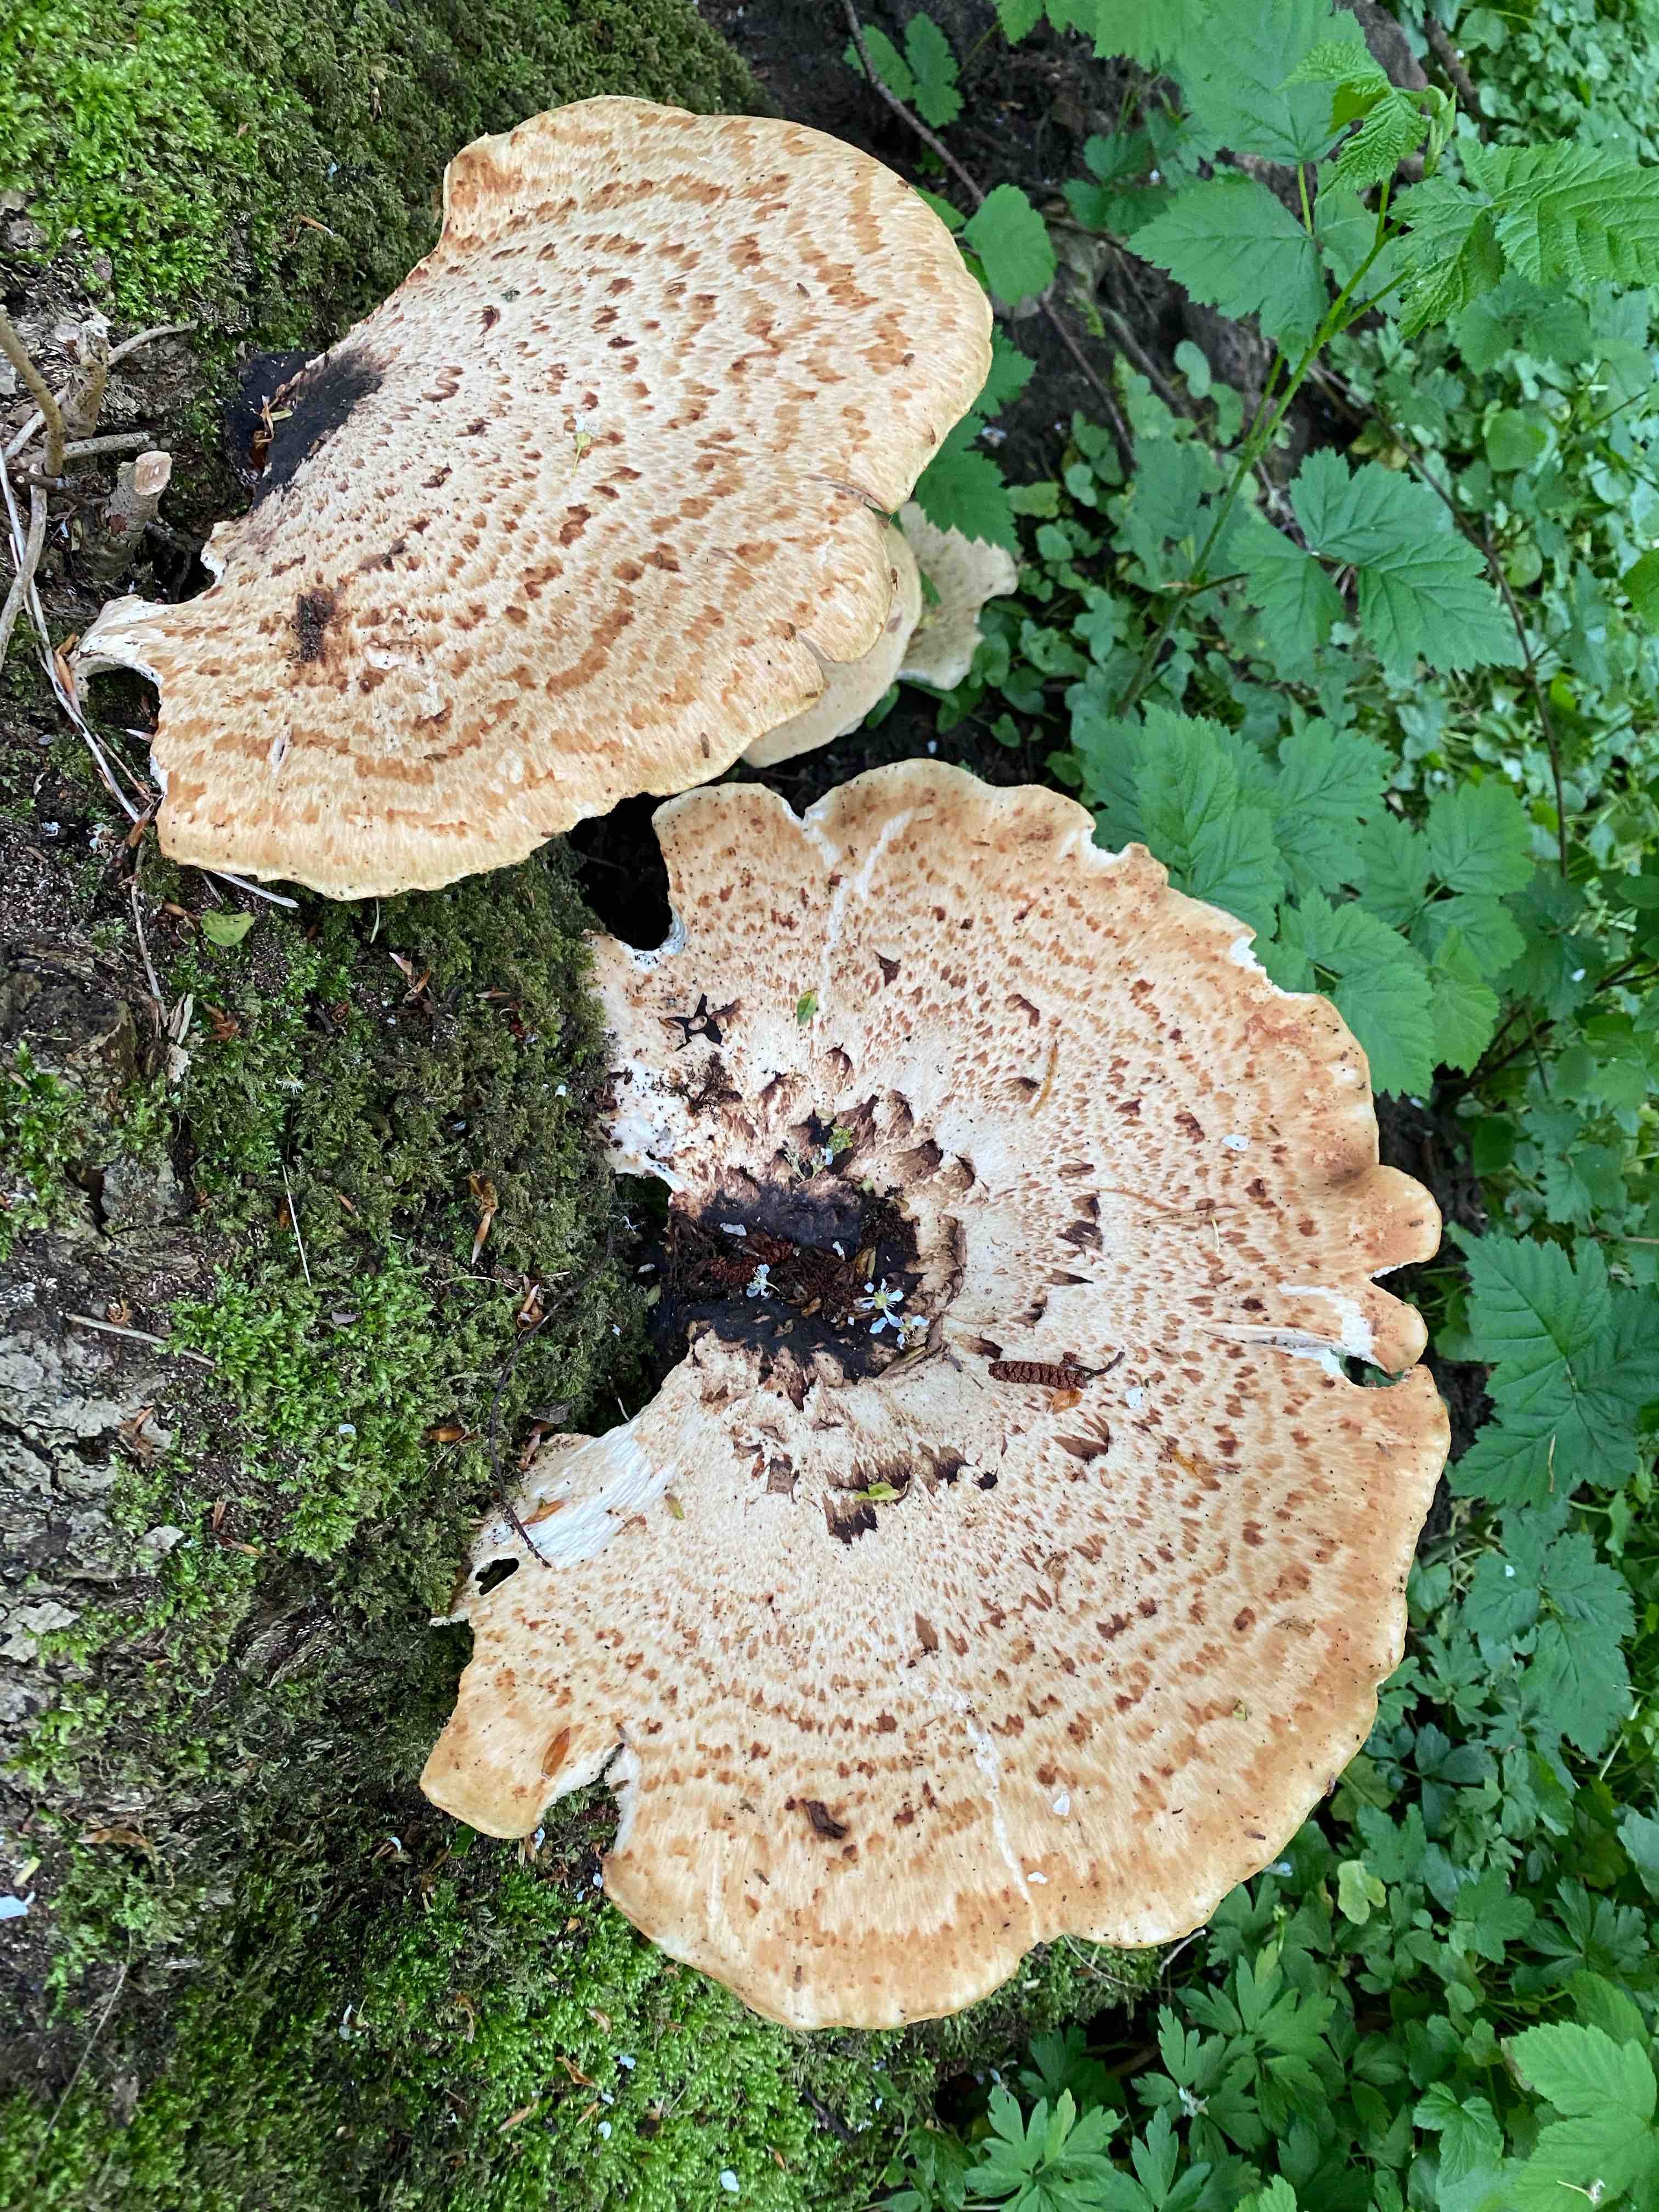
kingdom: Fungi
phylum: Basidiomycota
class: Agaricomycetes
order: Polyporales
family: Polyporaceae
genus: Cerioporus
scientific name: Cerioporus squamosus
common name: skællet stilkporesvamp
